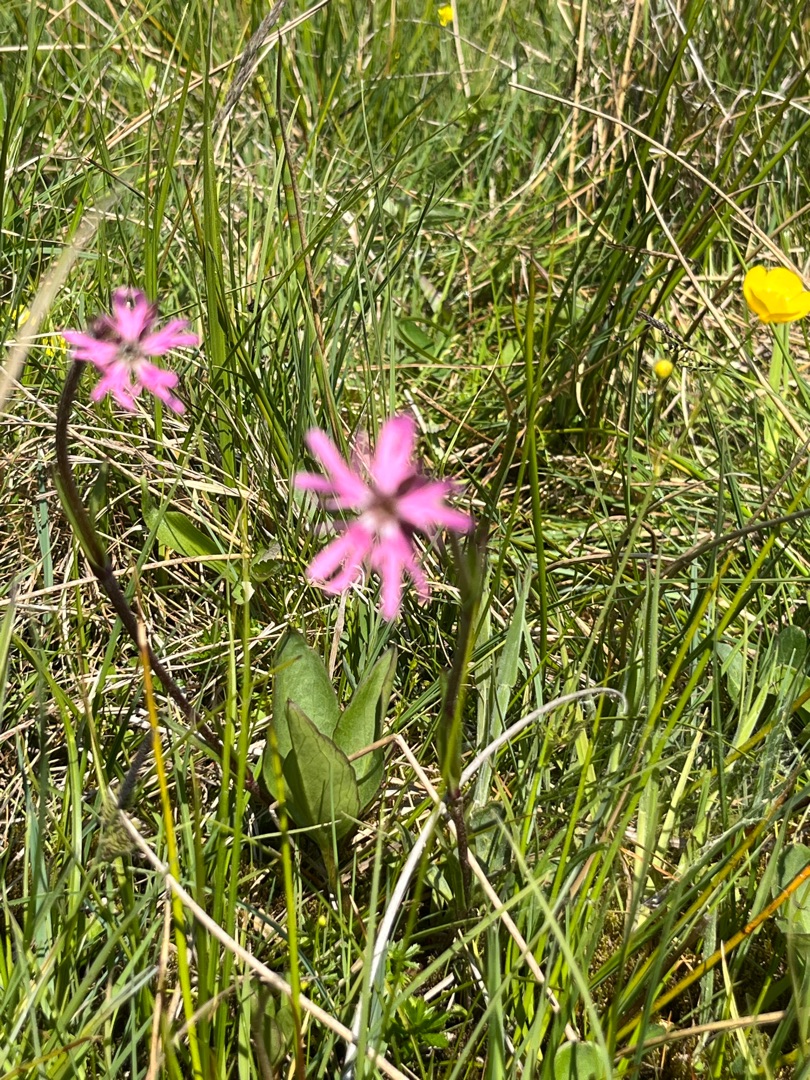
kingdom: Plantae
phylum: Tracheophyta
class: Magnoliopsida
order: Caryophyllales
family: Caryophyllaceae
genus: Silene
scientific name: Silene flos-cuculi
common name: Trævlekrone
